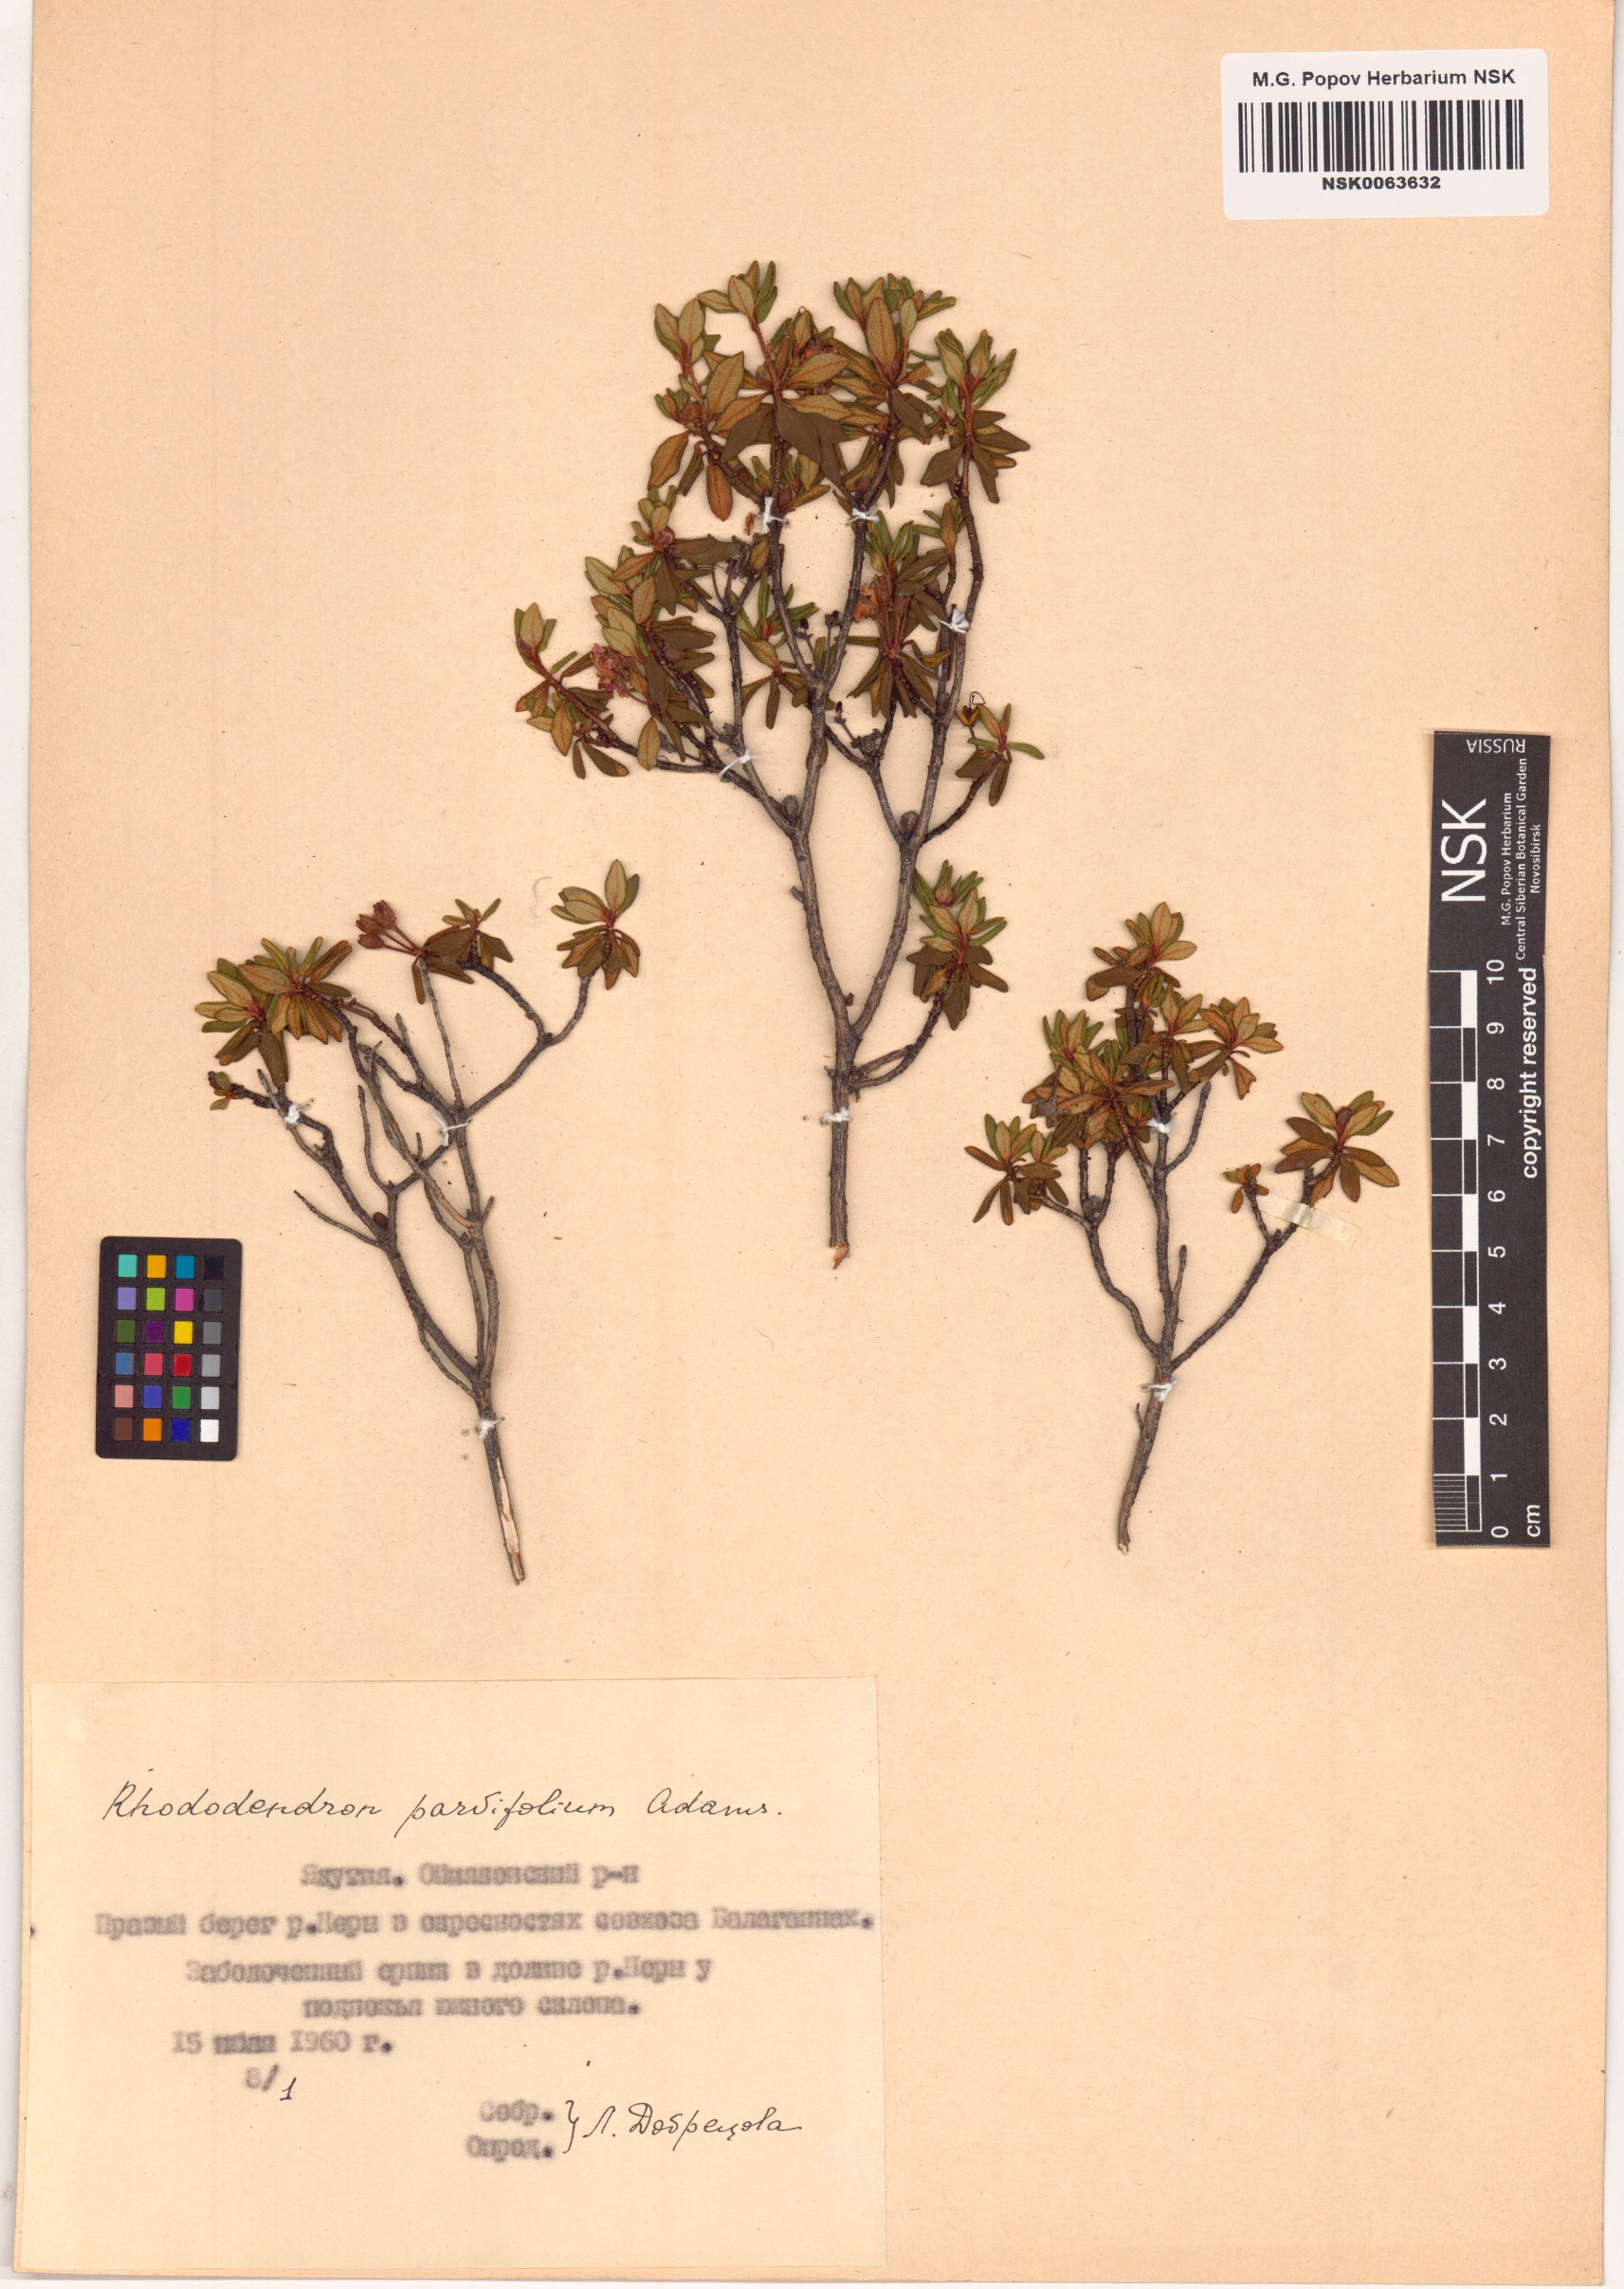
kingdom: Plantae
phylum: Tracheophyta
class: Magnoliopsida
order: Ericales
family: Ericaceae
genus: Rhododendron
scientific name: Rhododendron parvifolium
